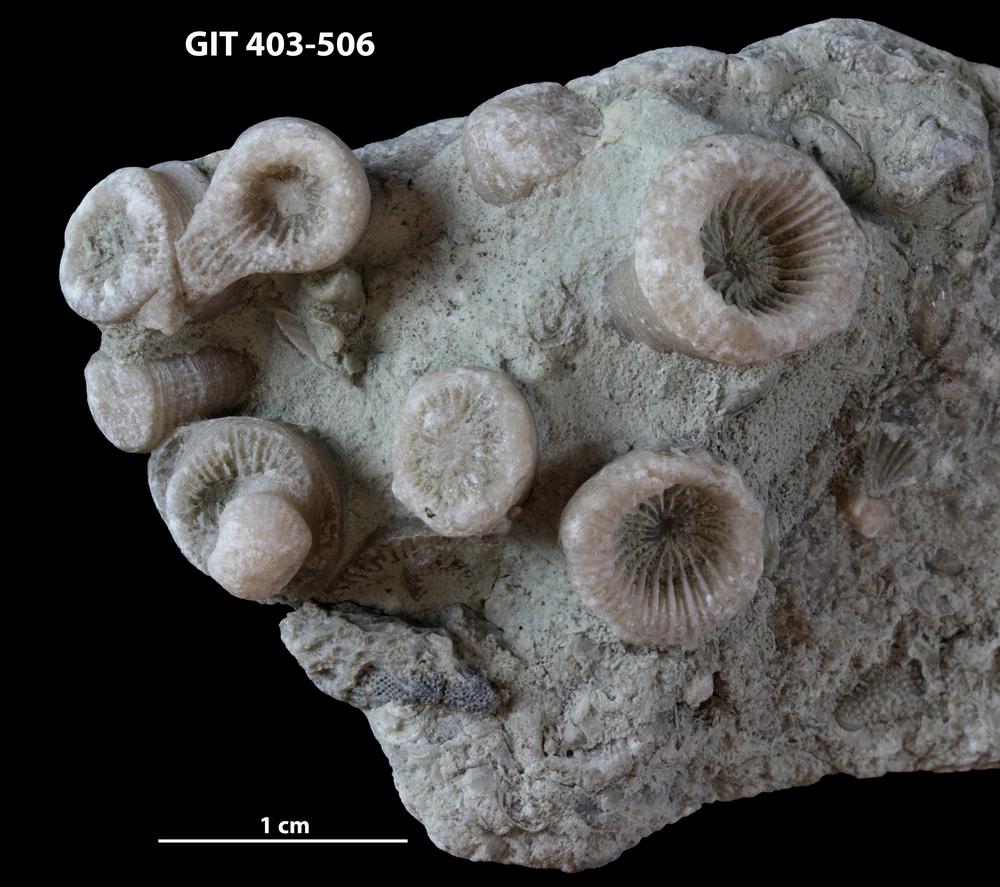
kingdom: Animalia
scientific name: Animalia
